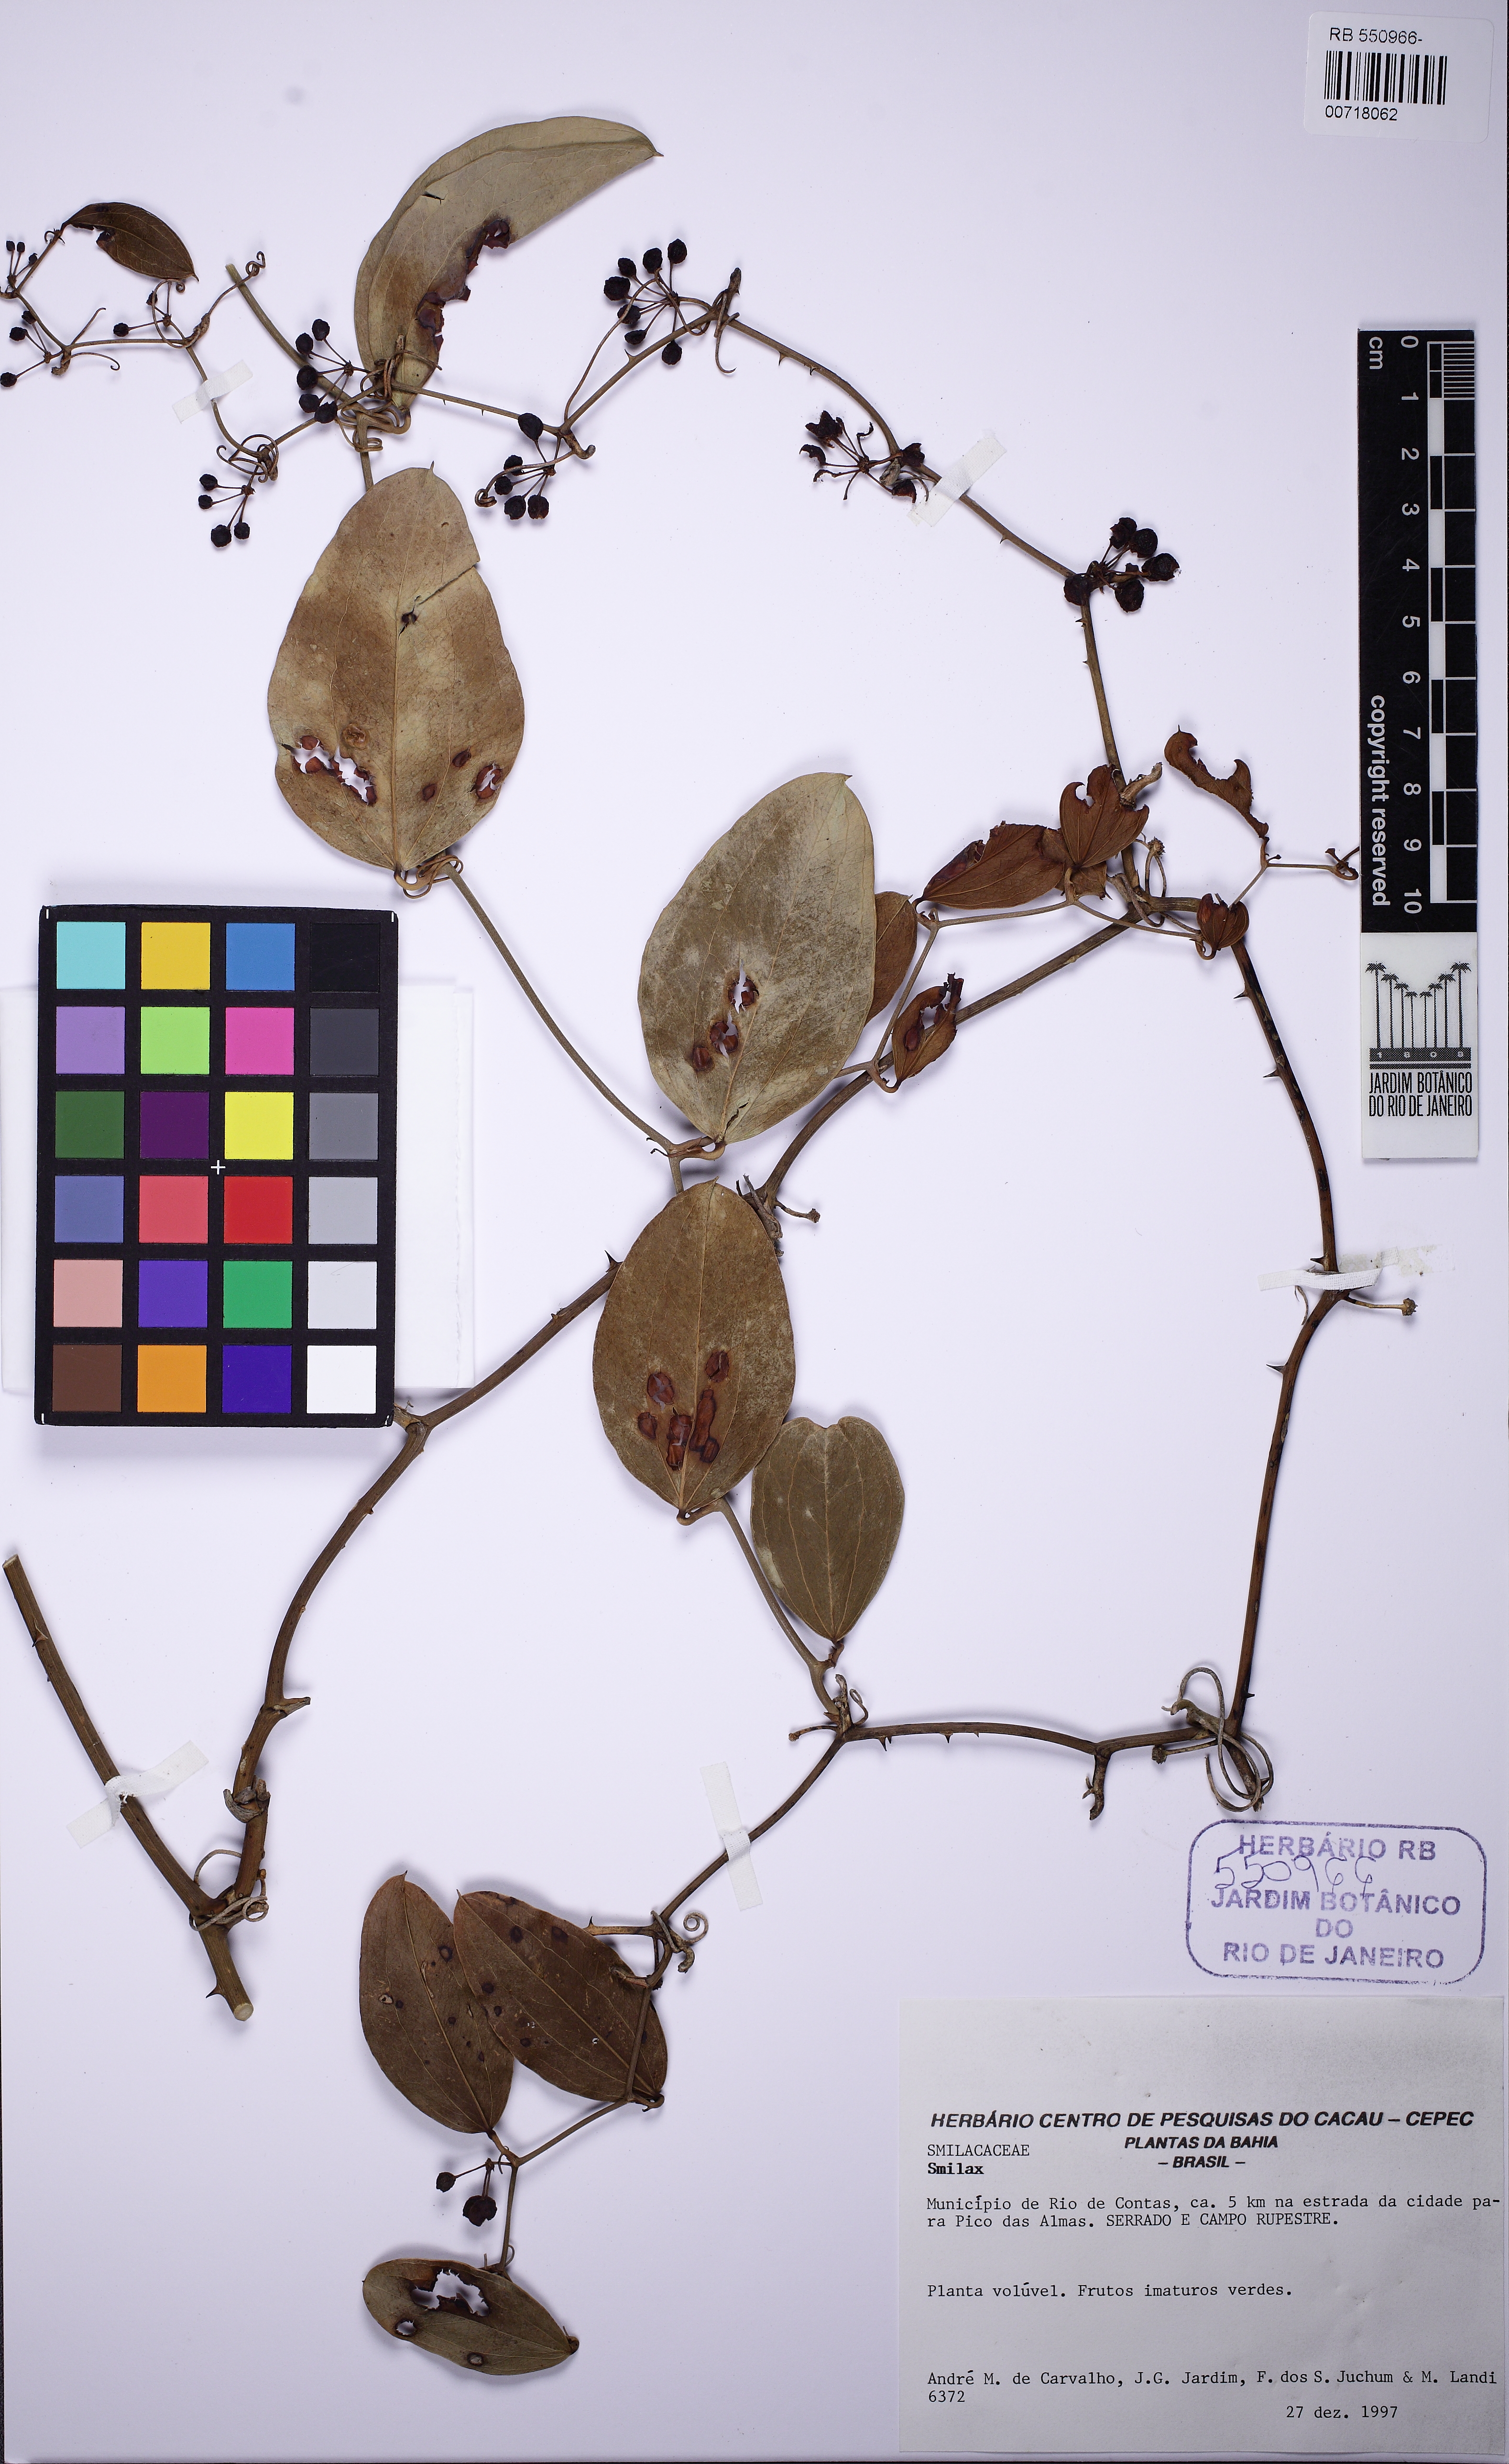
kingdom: Plantae
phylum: Tracheophyta
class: Liliopsida
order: Liliales
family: Smilacaceae
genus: Smilax
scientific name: Smilax
